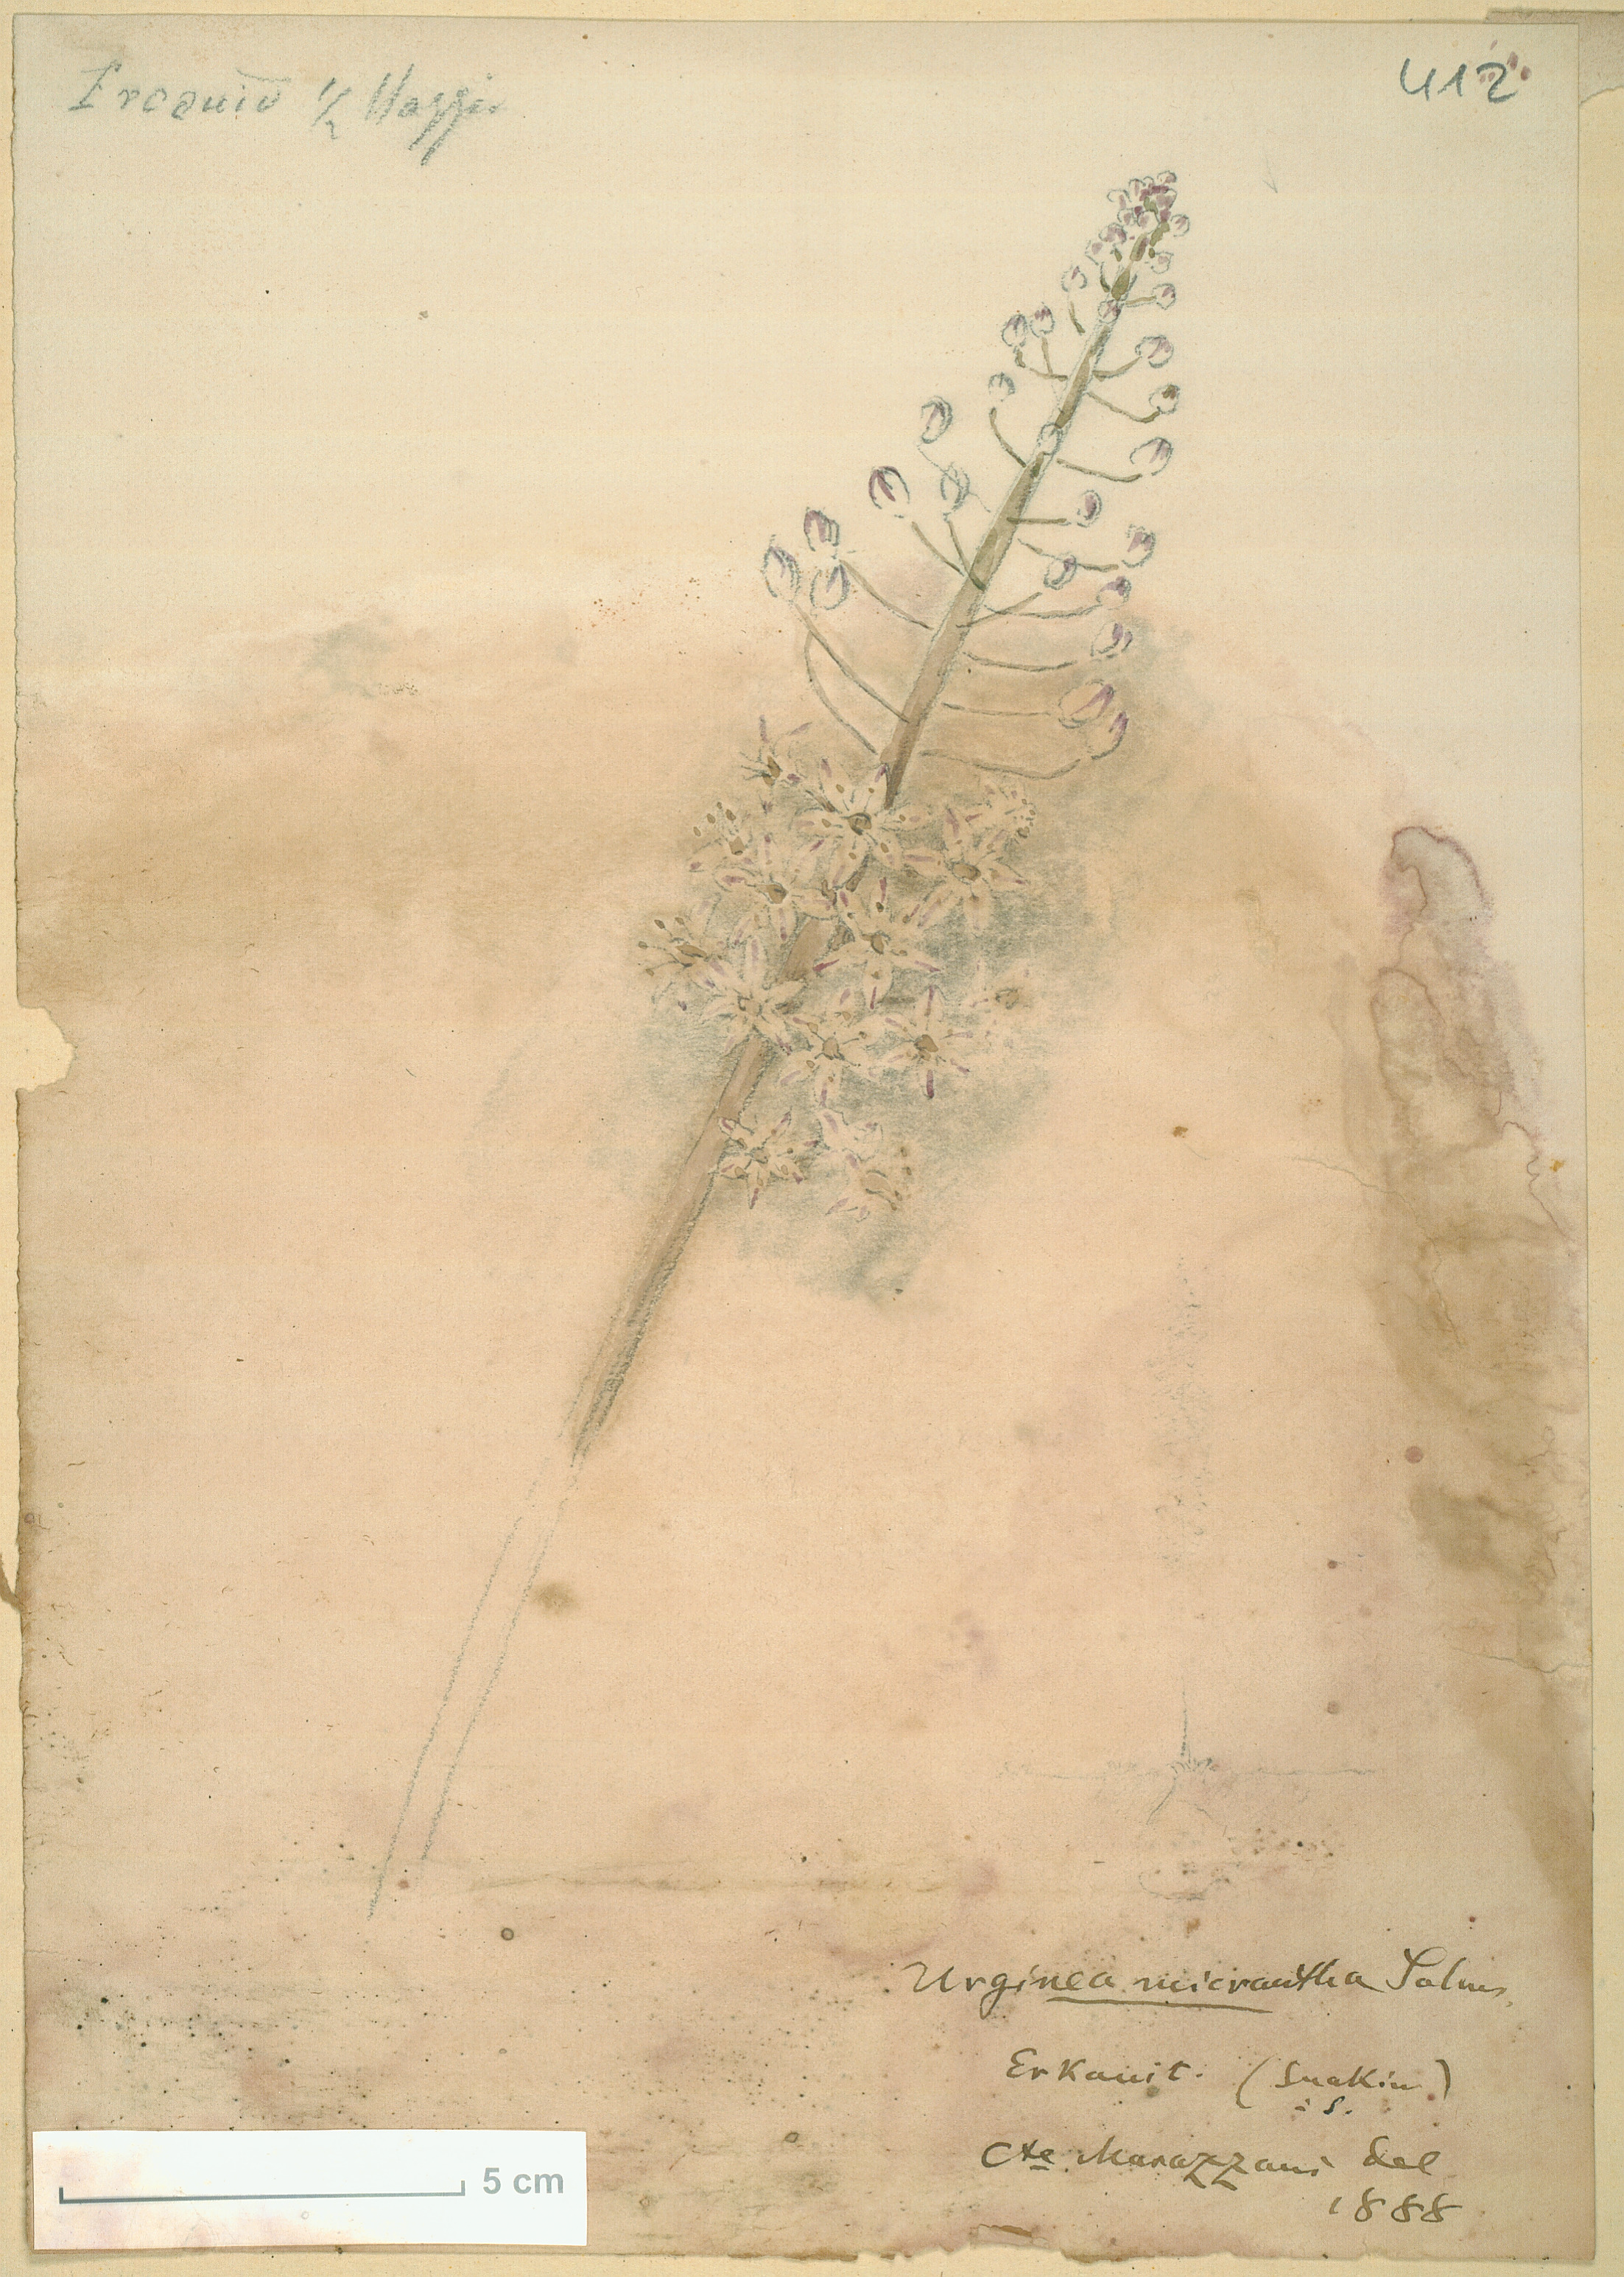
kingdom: Plantae
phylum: Tracheophyta
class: Liliopsida
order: Asparagales
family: Asparagaceae
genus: Drimia
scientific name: Drimia altissima
